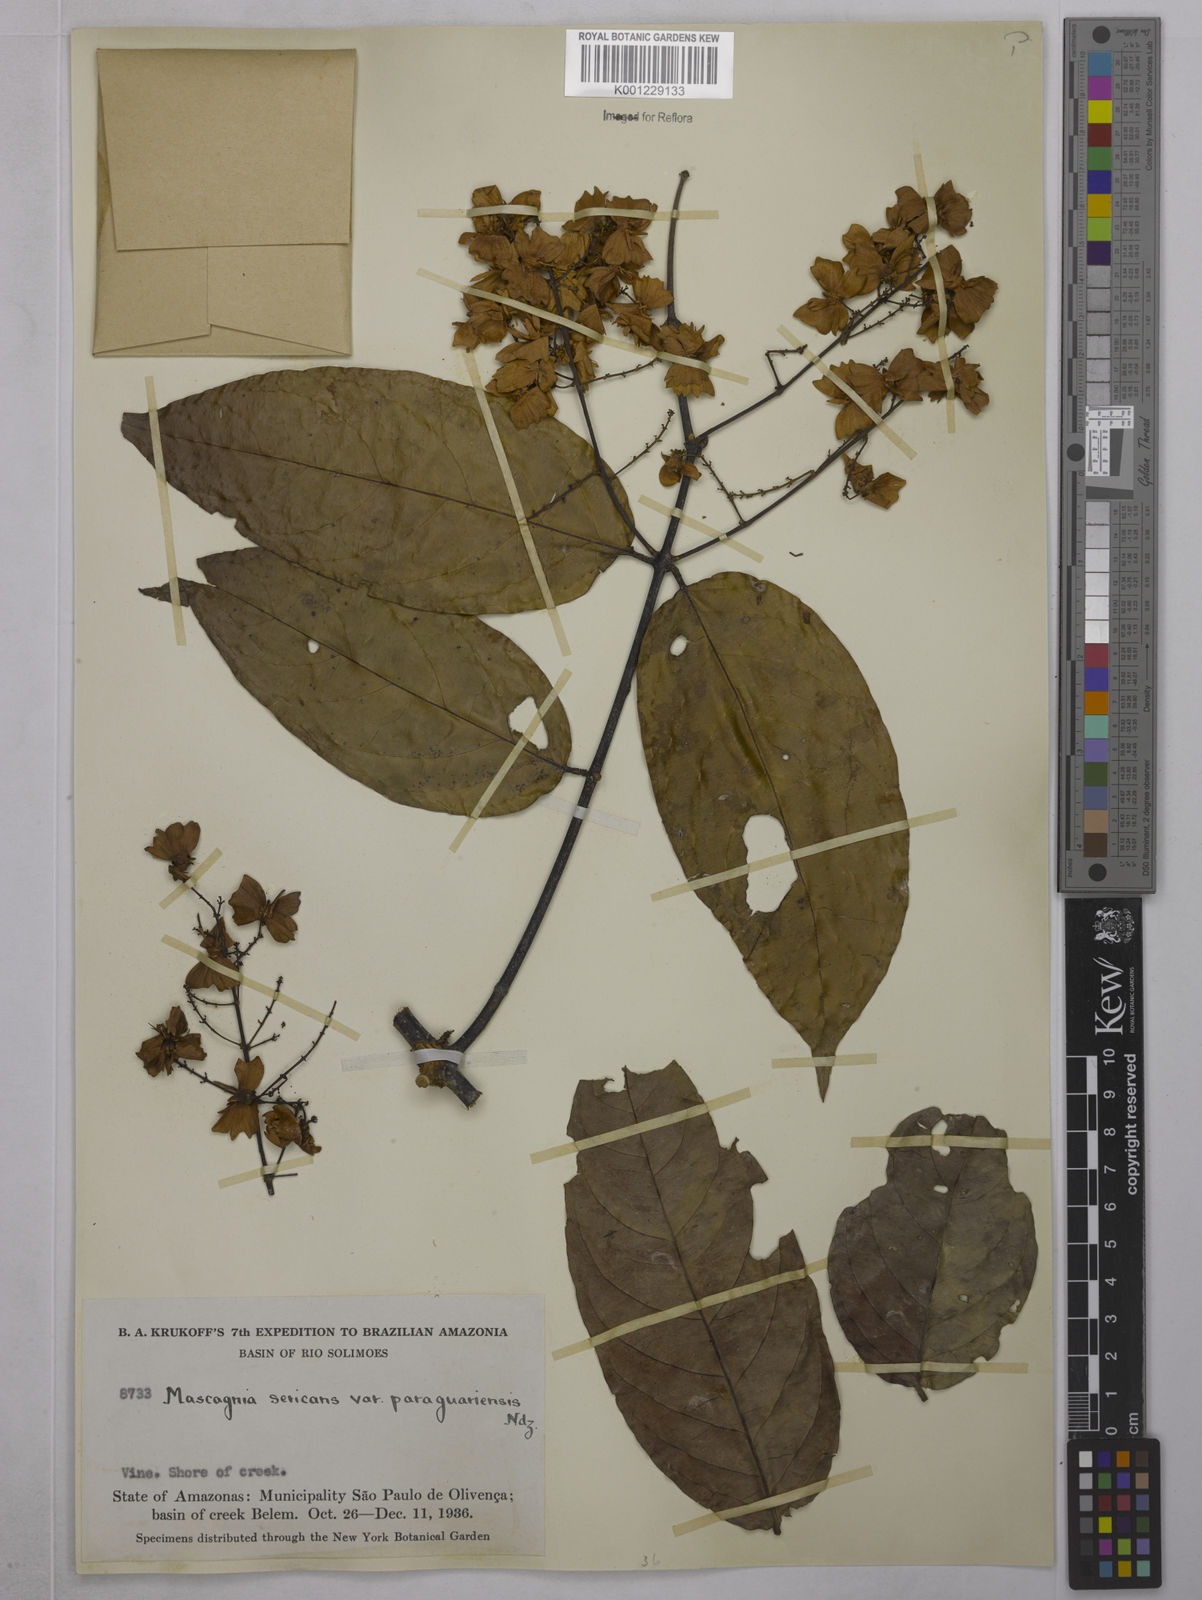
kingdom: Plantae
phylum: Tracheophyta
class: Magnoliopsida
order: Malpighiales
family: Malpighiaceae
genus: Niedenzuella
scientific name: Niedenzuella stannea
